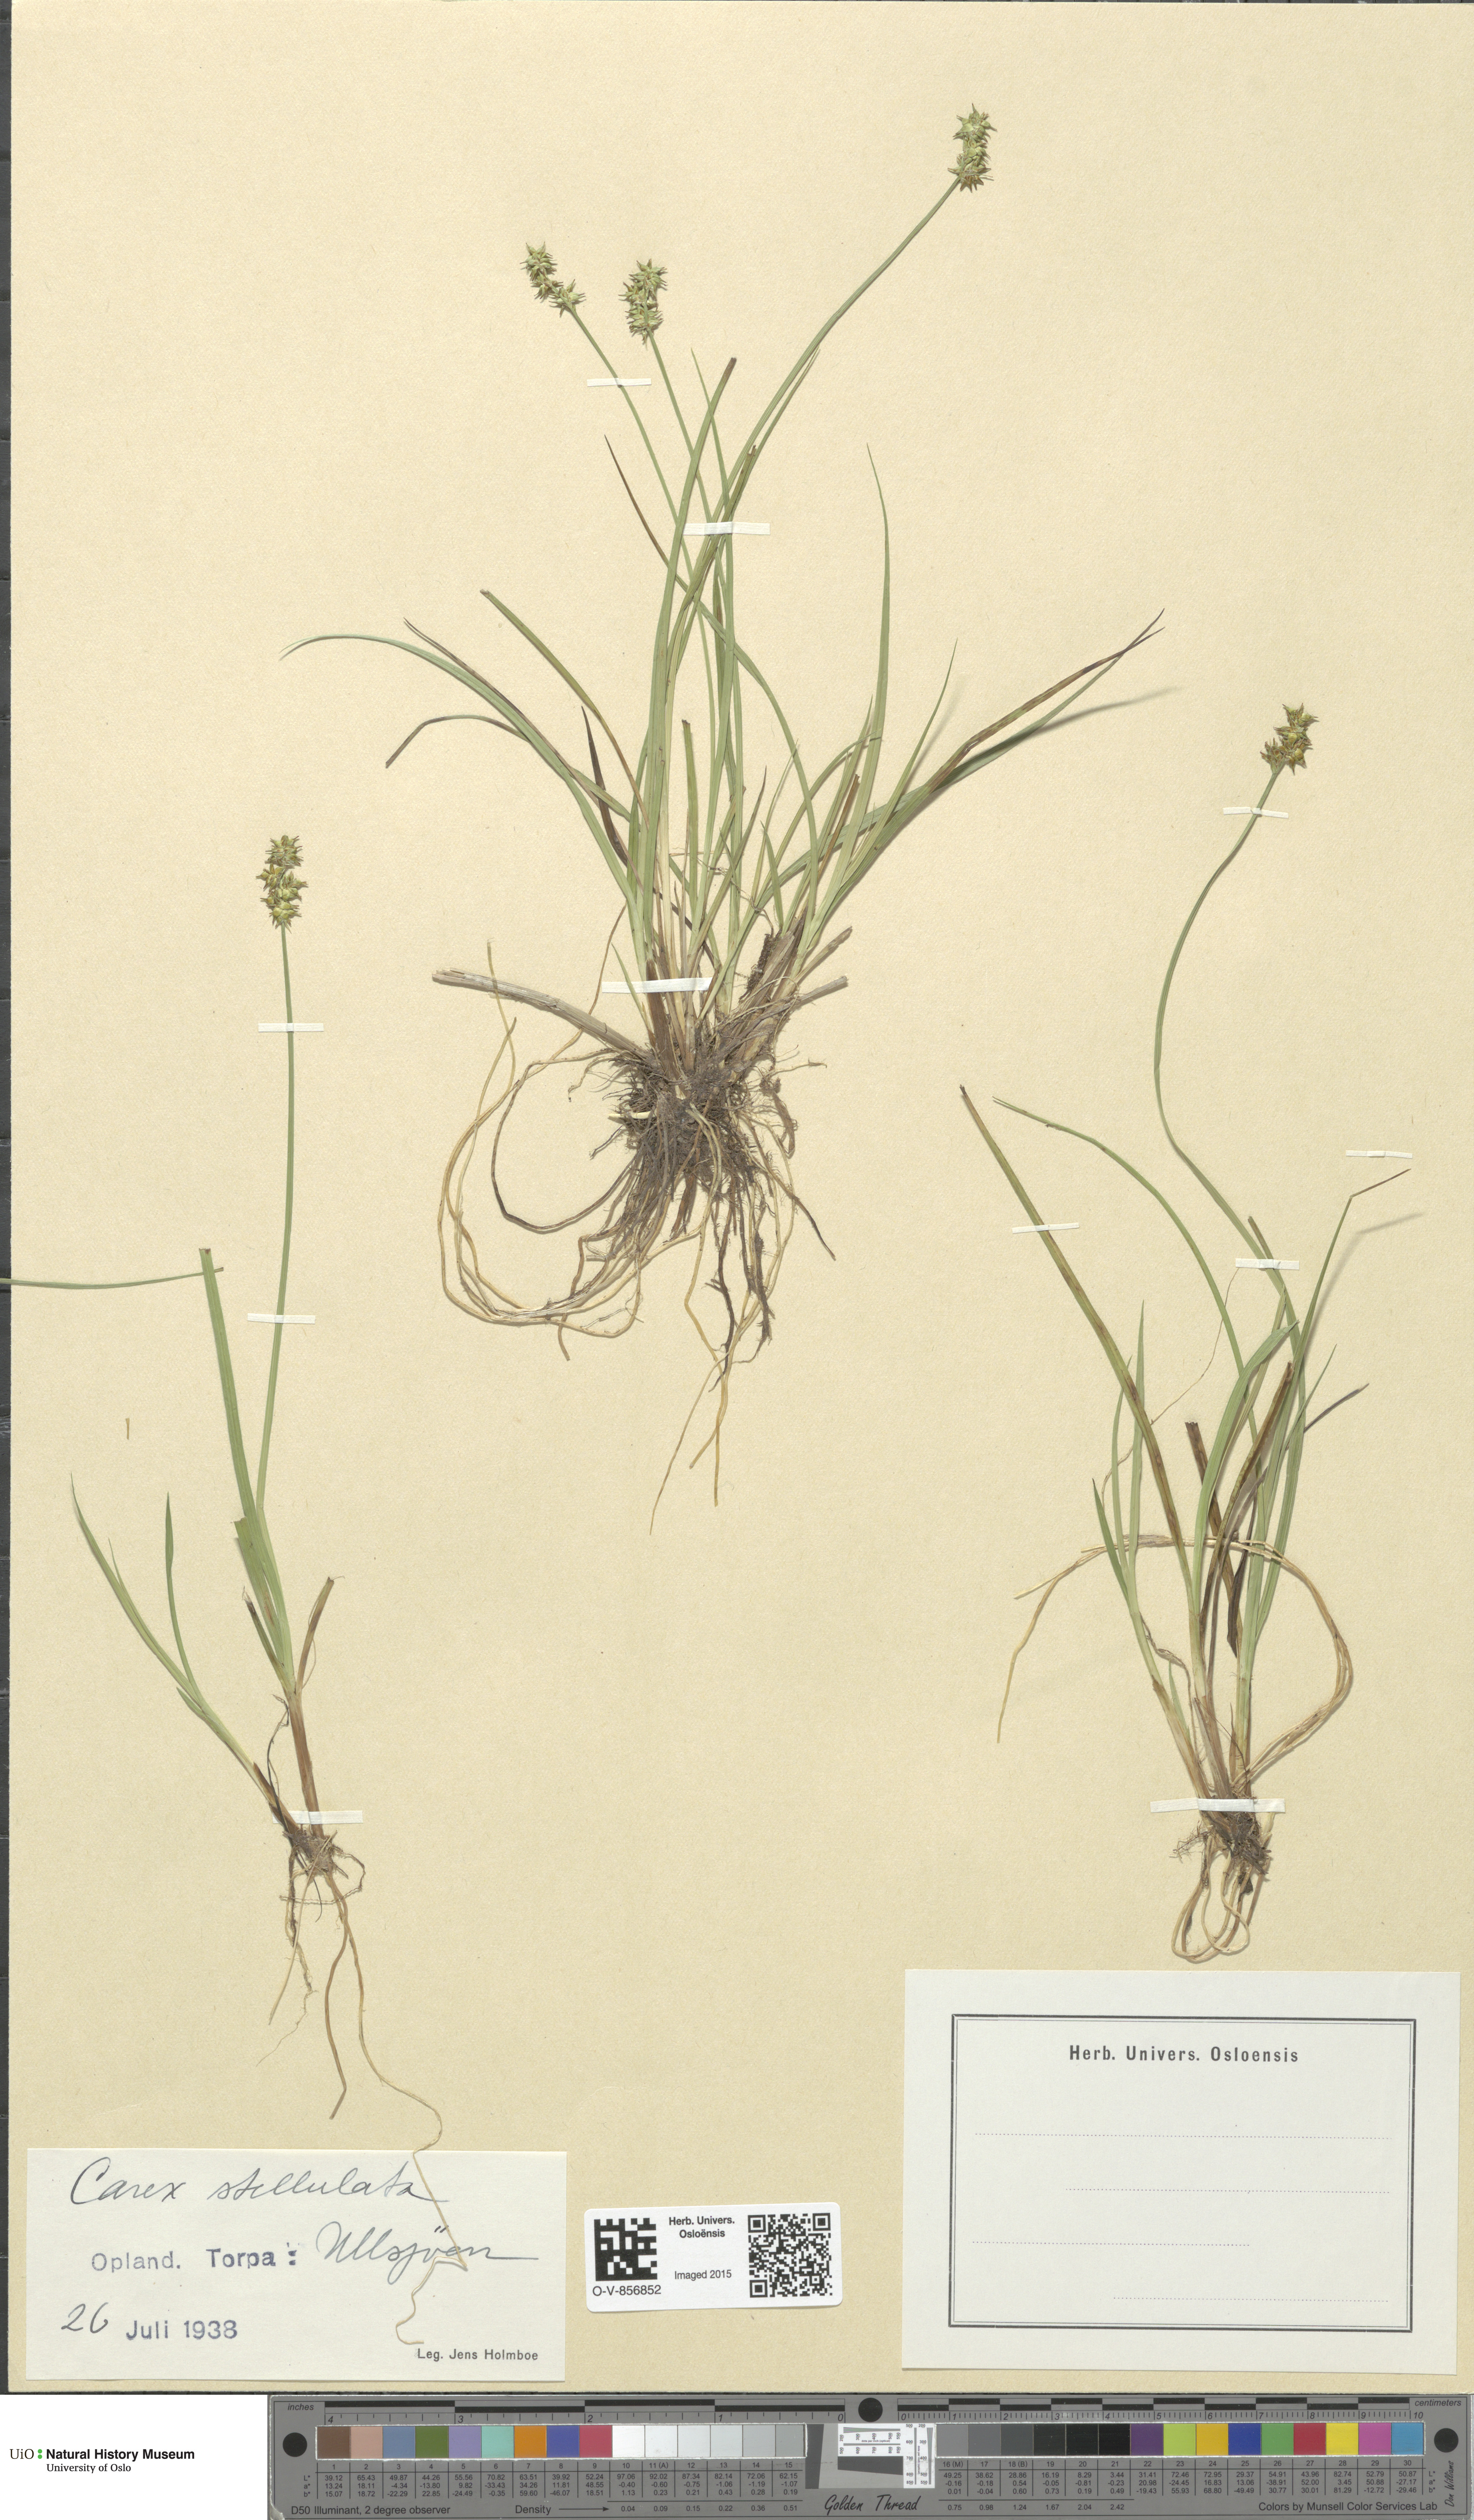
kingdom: Plantae
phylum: Tracheophyta
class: Liliopsida
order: Poales
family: Cyperaceae
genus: Carex
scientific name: Carex echinata
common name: Star sedge
